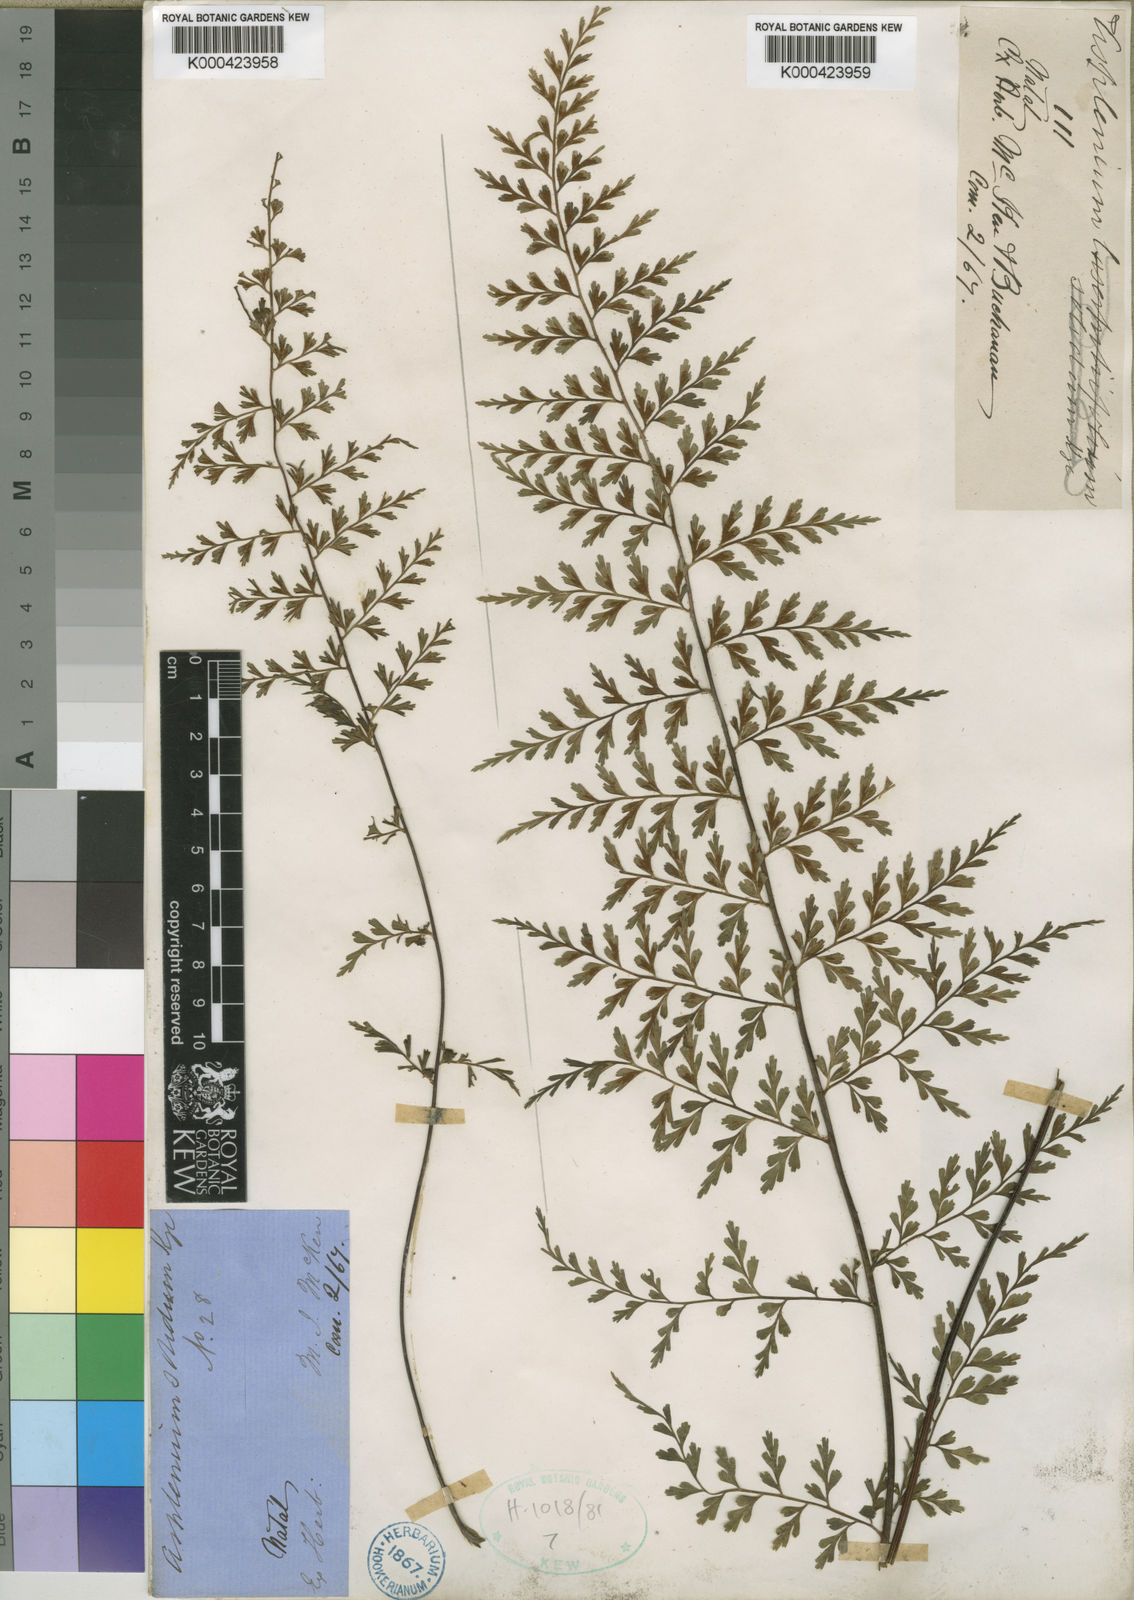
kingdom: Plantae
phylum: Tracheophyta
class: Polypodiopsida
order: Polypodiales
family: Aspleniaceae
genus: Asplenium
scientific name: Asplenium aethiopicum
